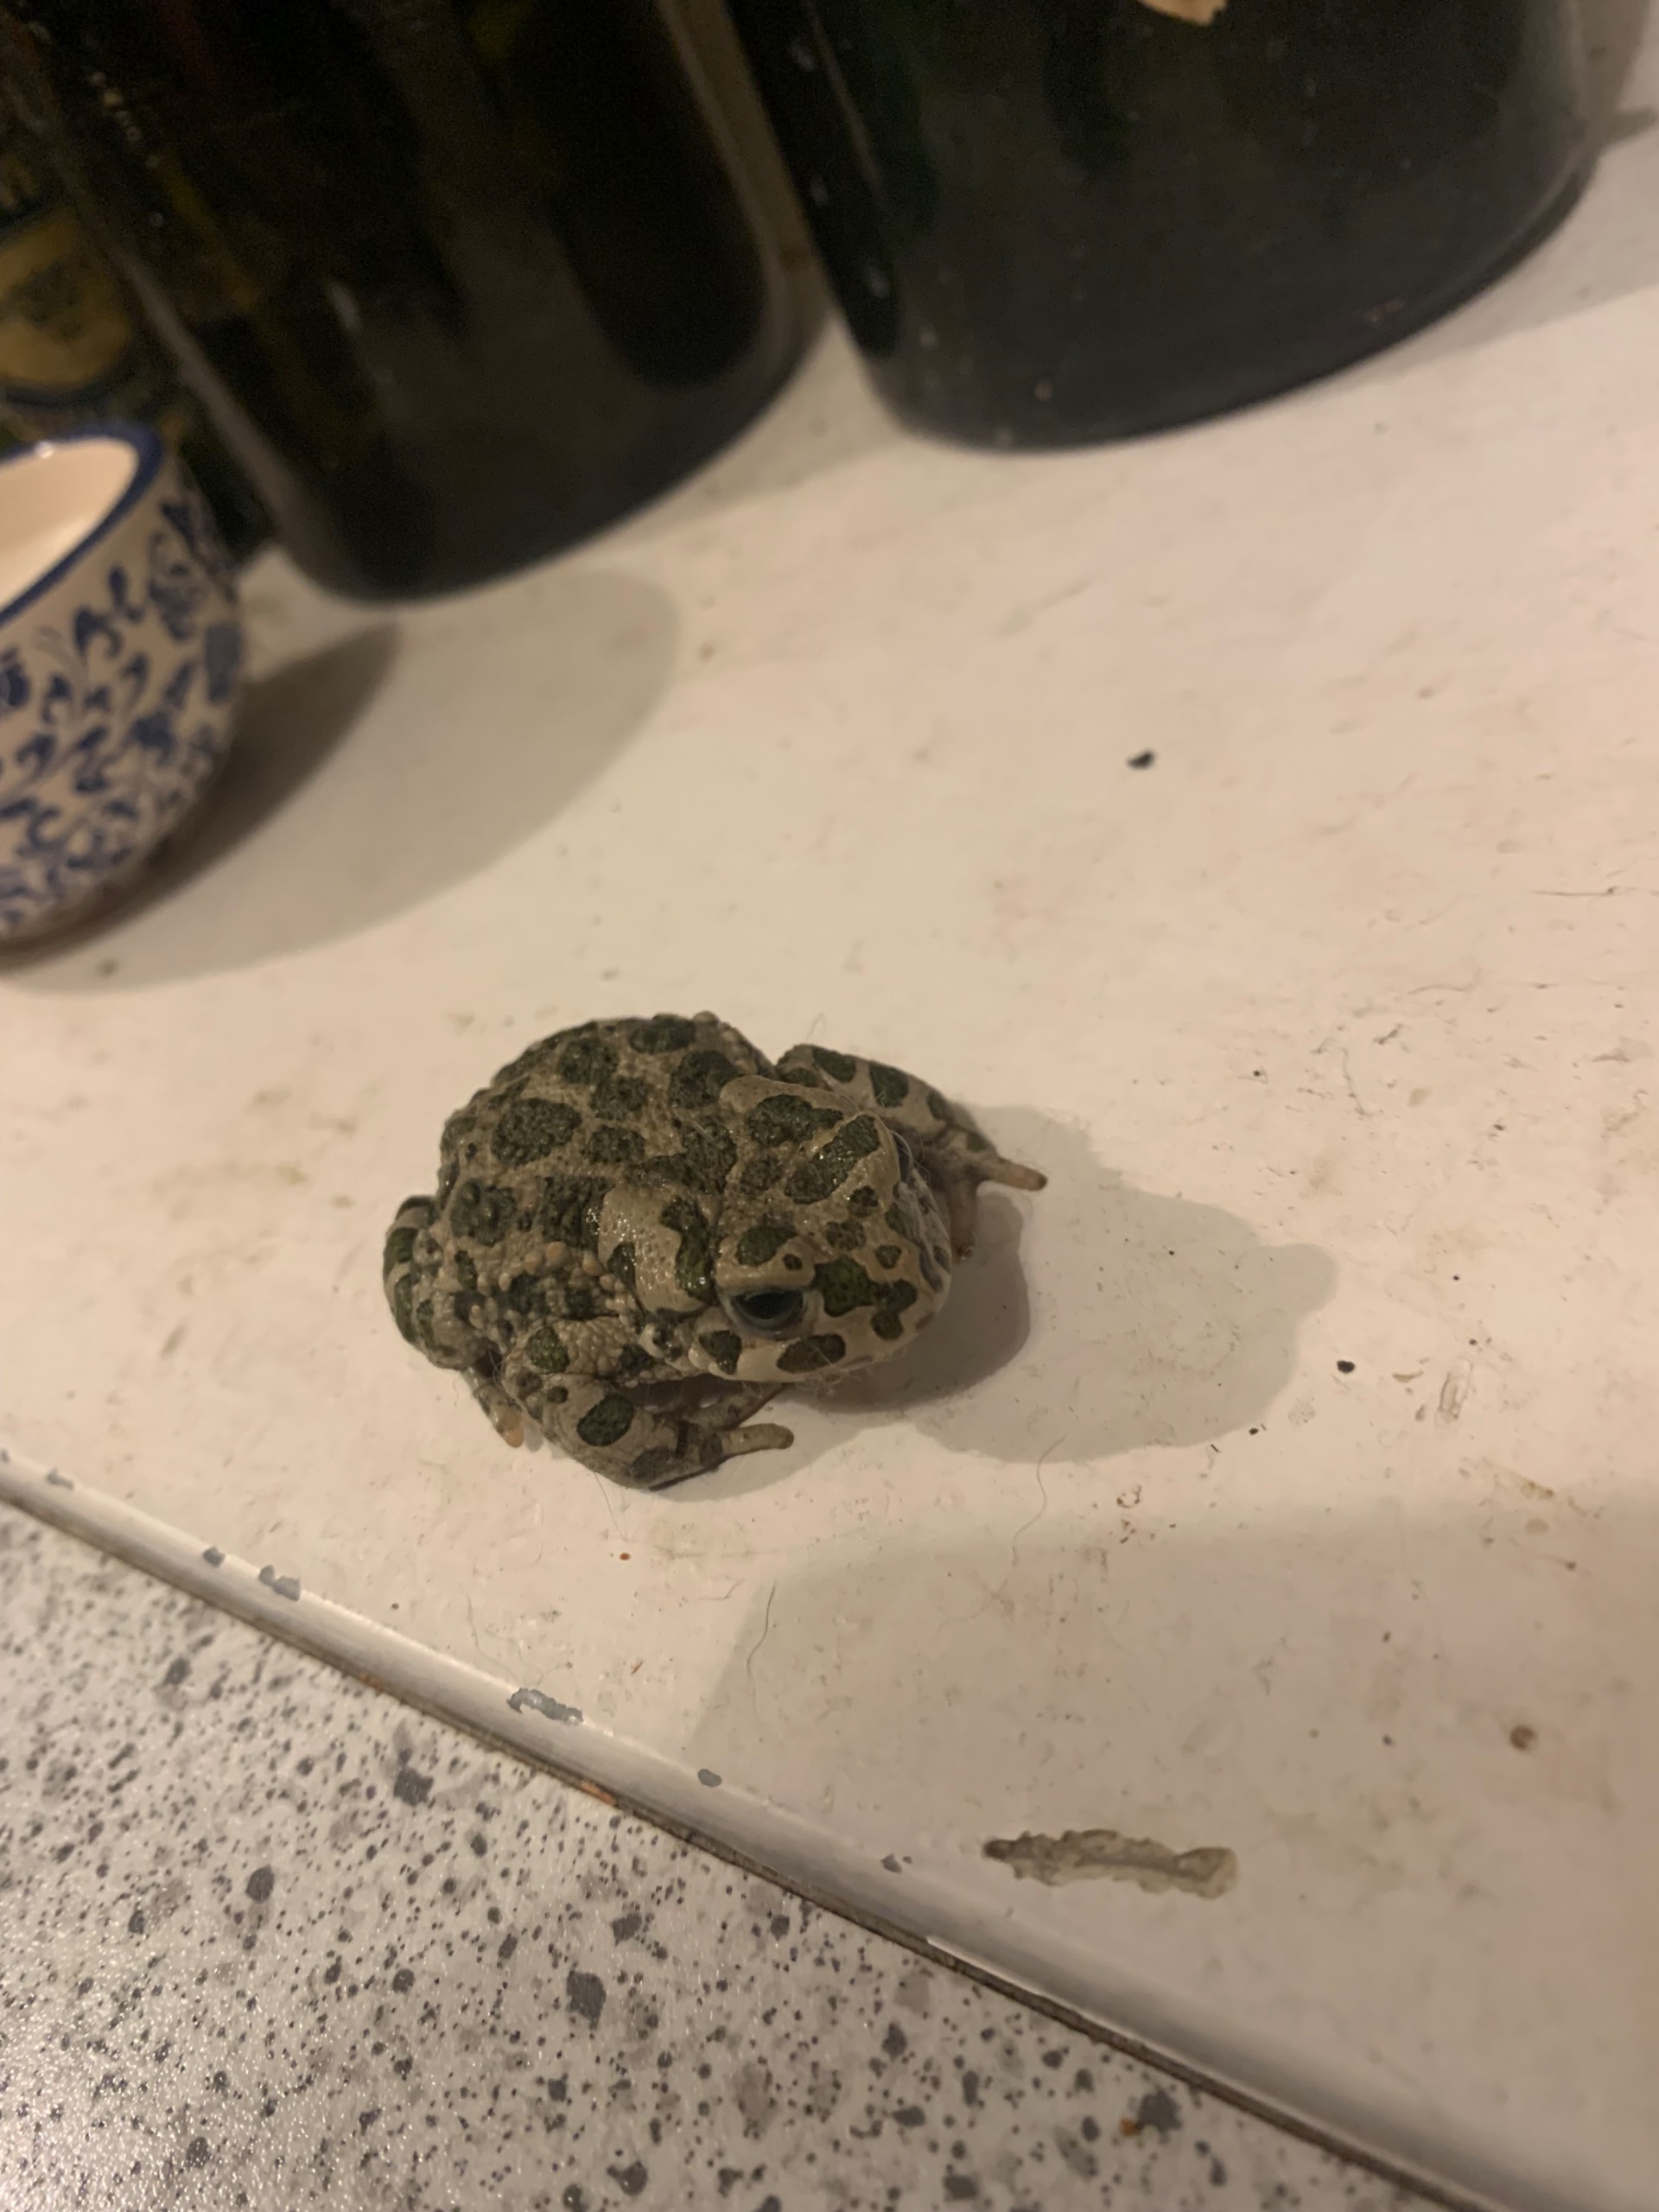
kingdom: Animalia
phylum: Chordata
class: Amphibia
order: Anura
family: Bufonidae
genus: Bufotes
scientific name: Bufotes viridis
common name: Grønbroget tudse
